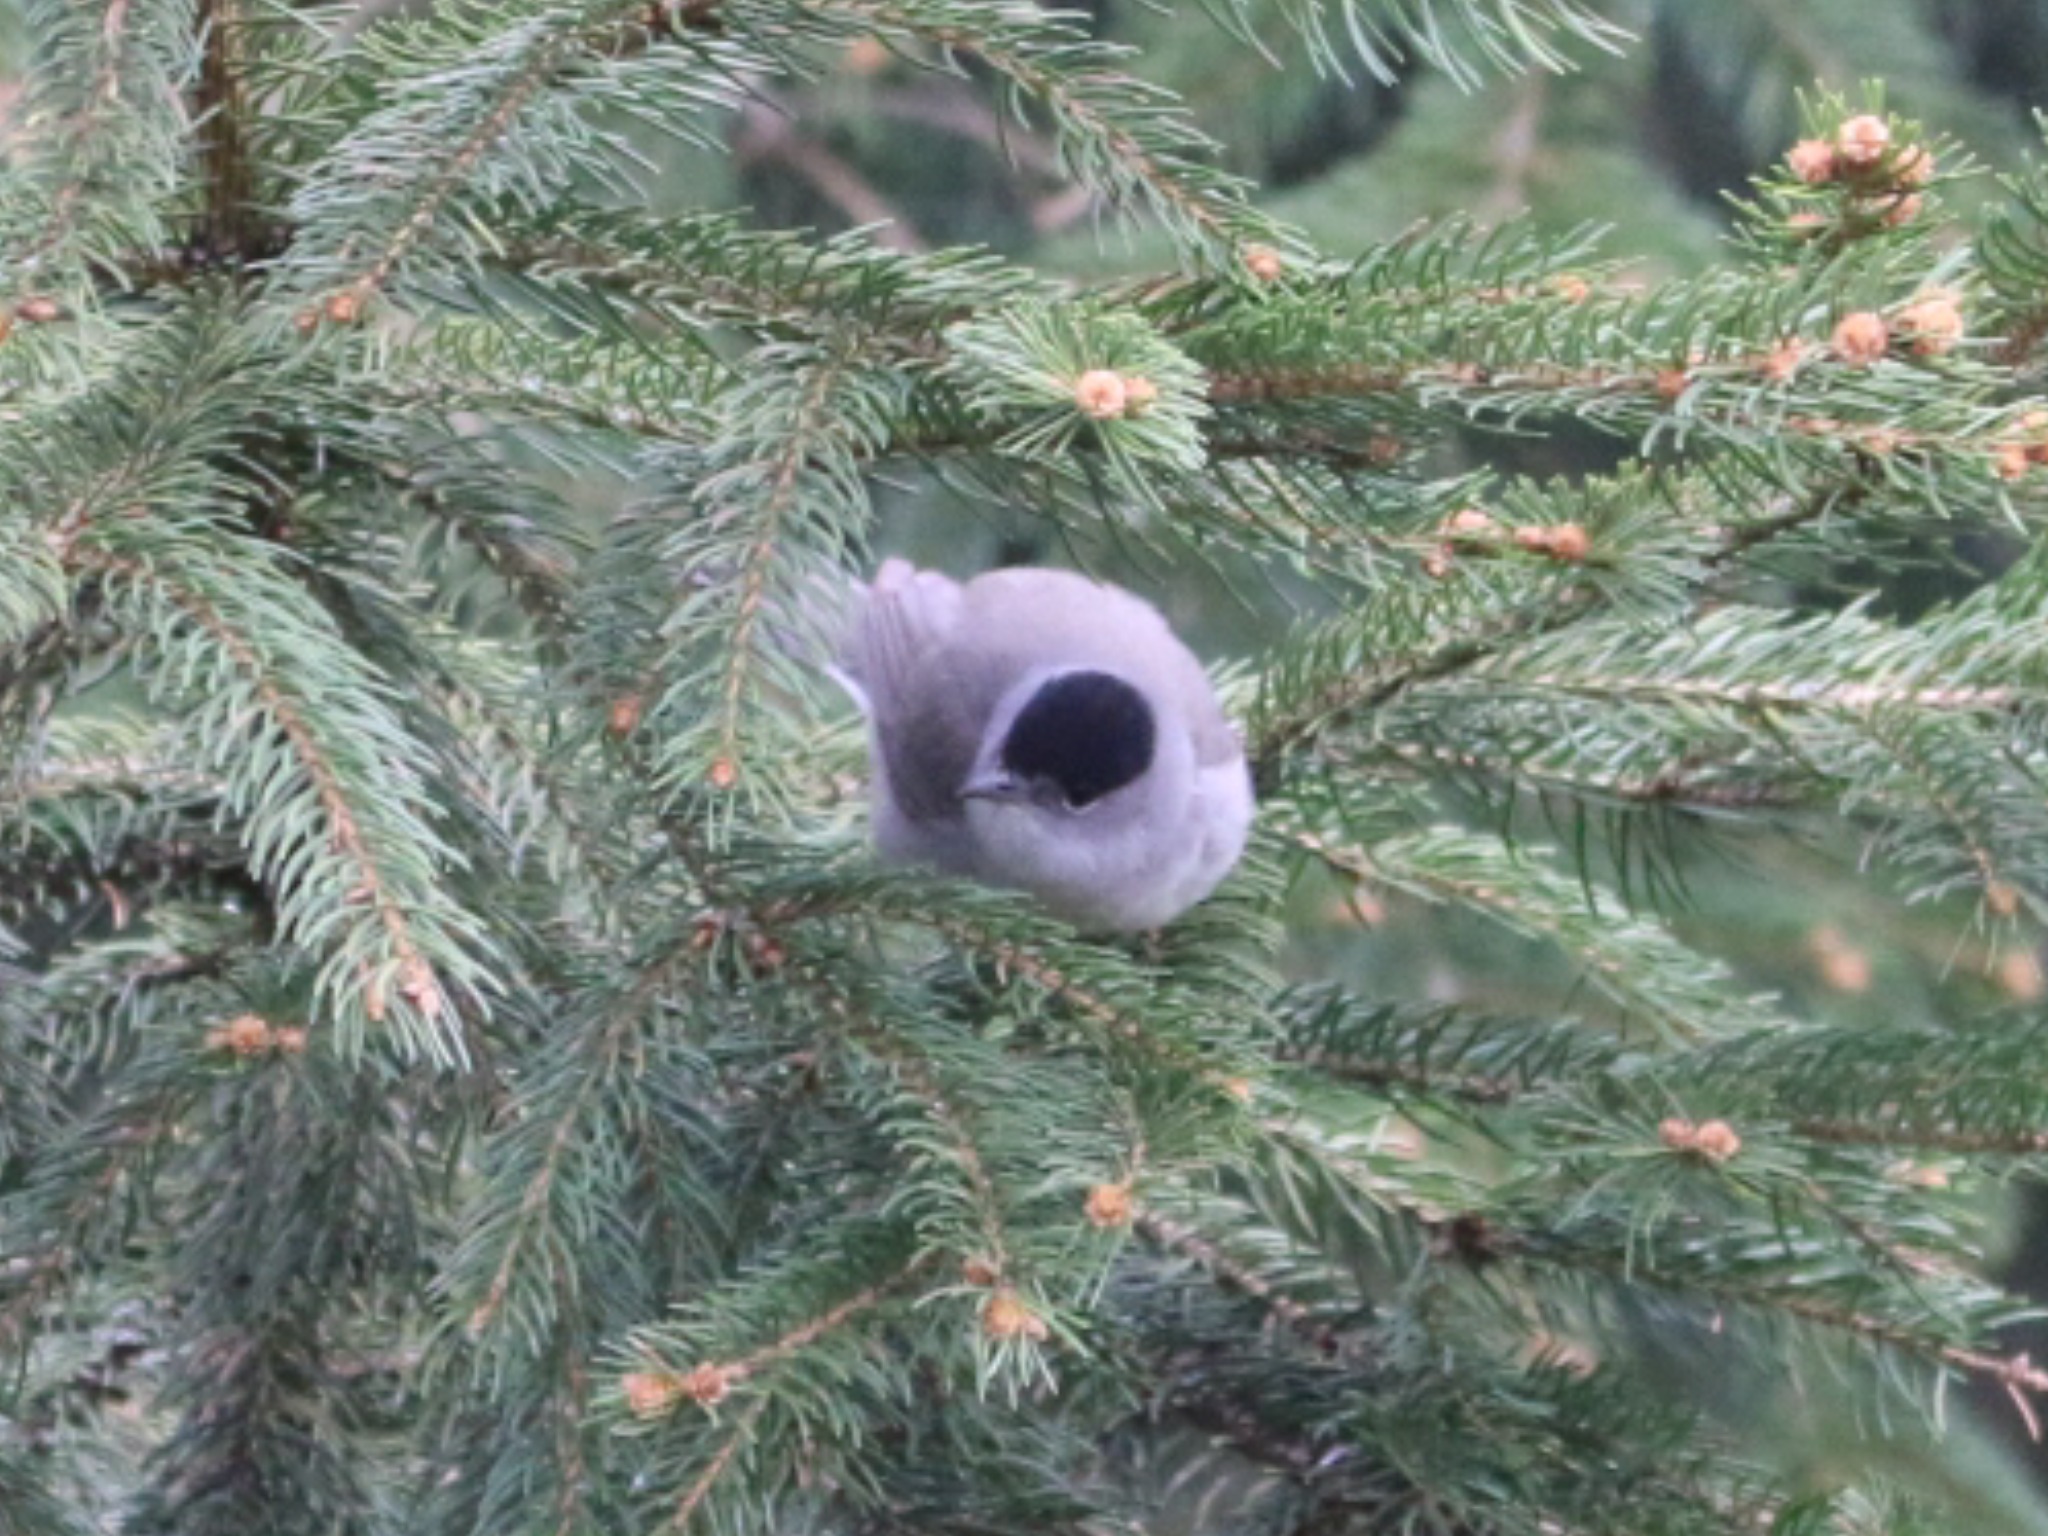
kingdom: Animalia
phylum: Chordata
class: Aves
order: Passeriformes
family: Sylviidae
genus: Sylvia
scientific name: Sylvia atricapilla
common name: Munk
